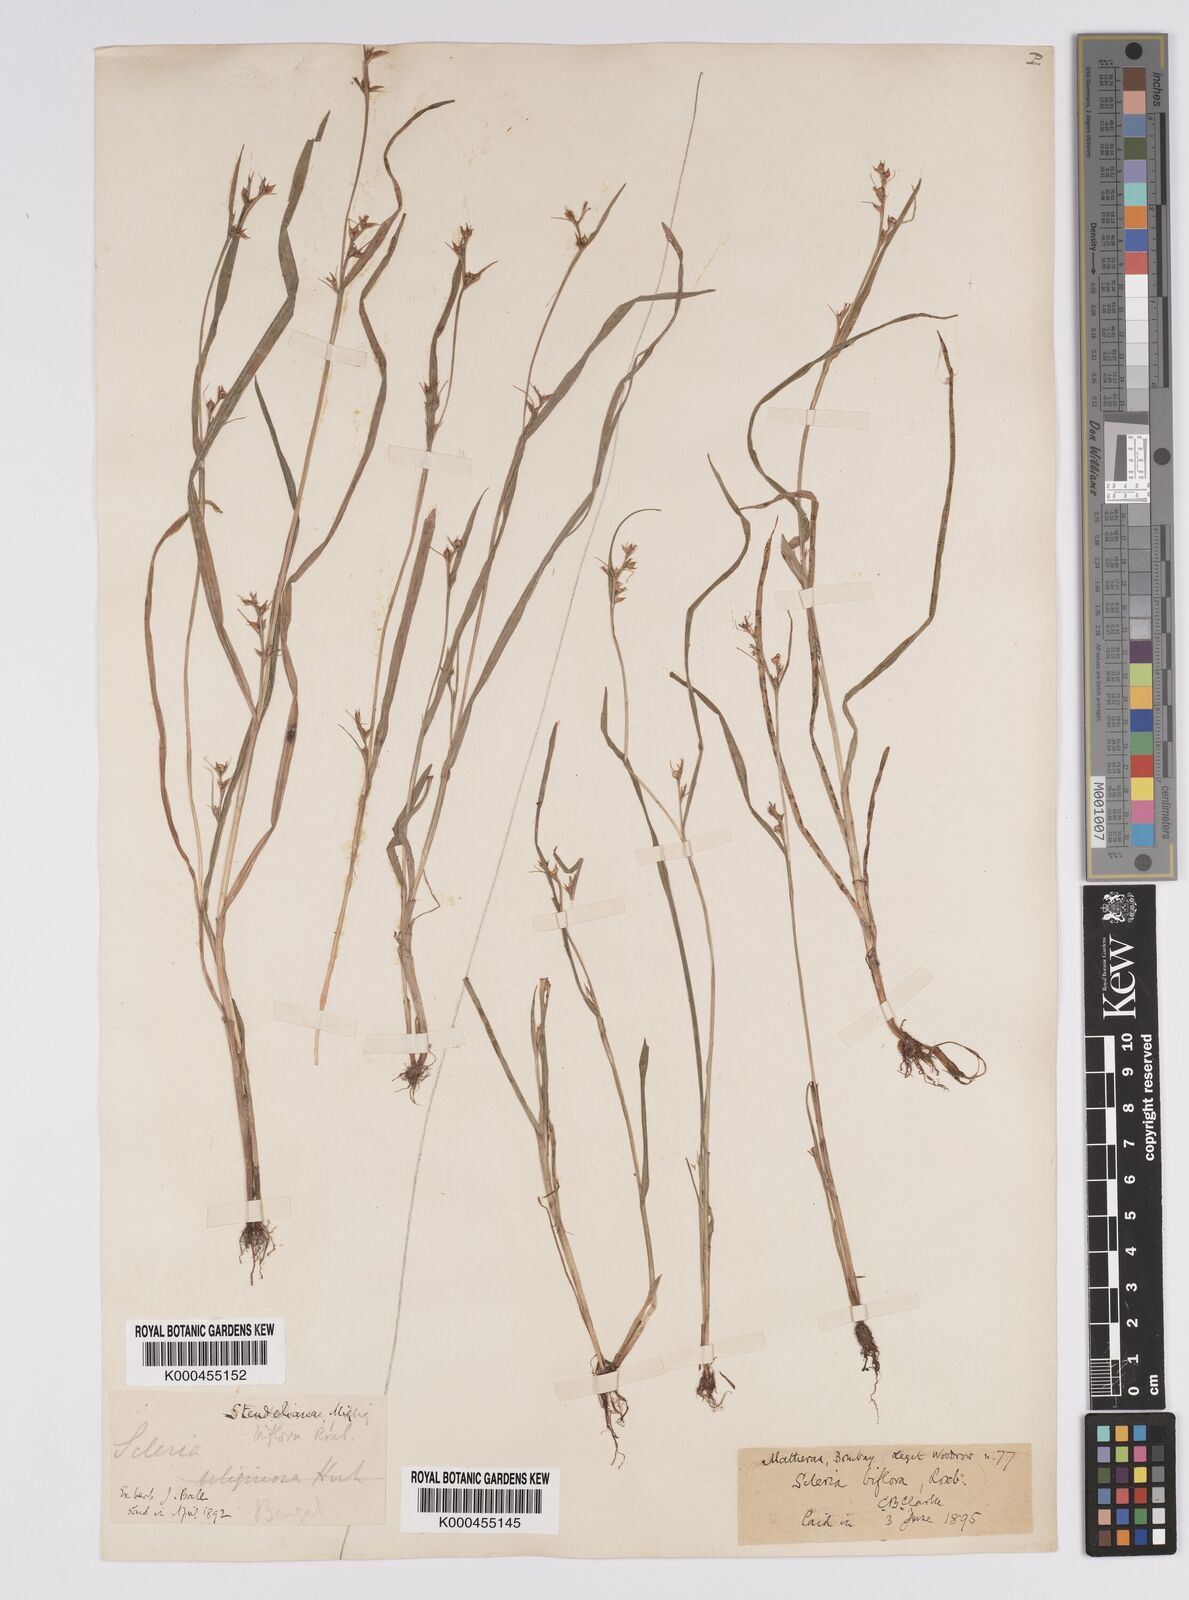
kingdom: Plantae
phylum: Tracheophyta
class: Liliopsida
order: Poales
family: Cyperaceae
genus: Scleria
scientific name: Scleria biflora
